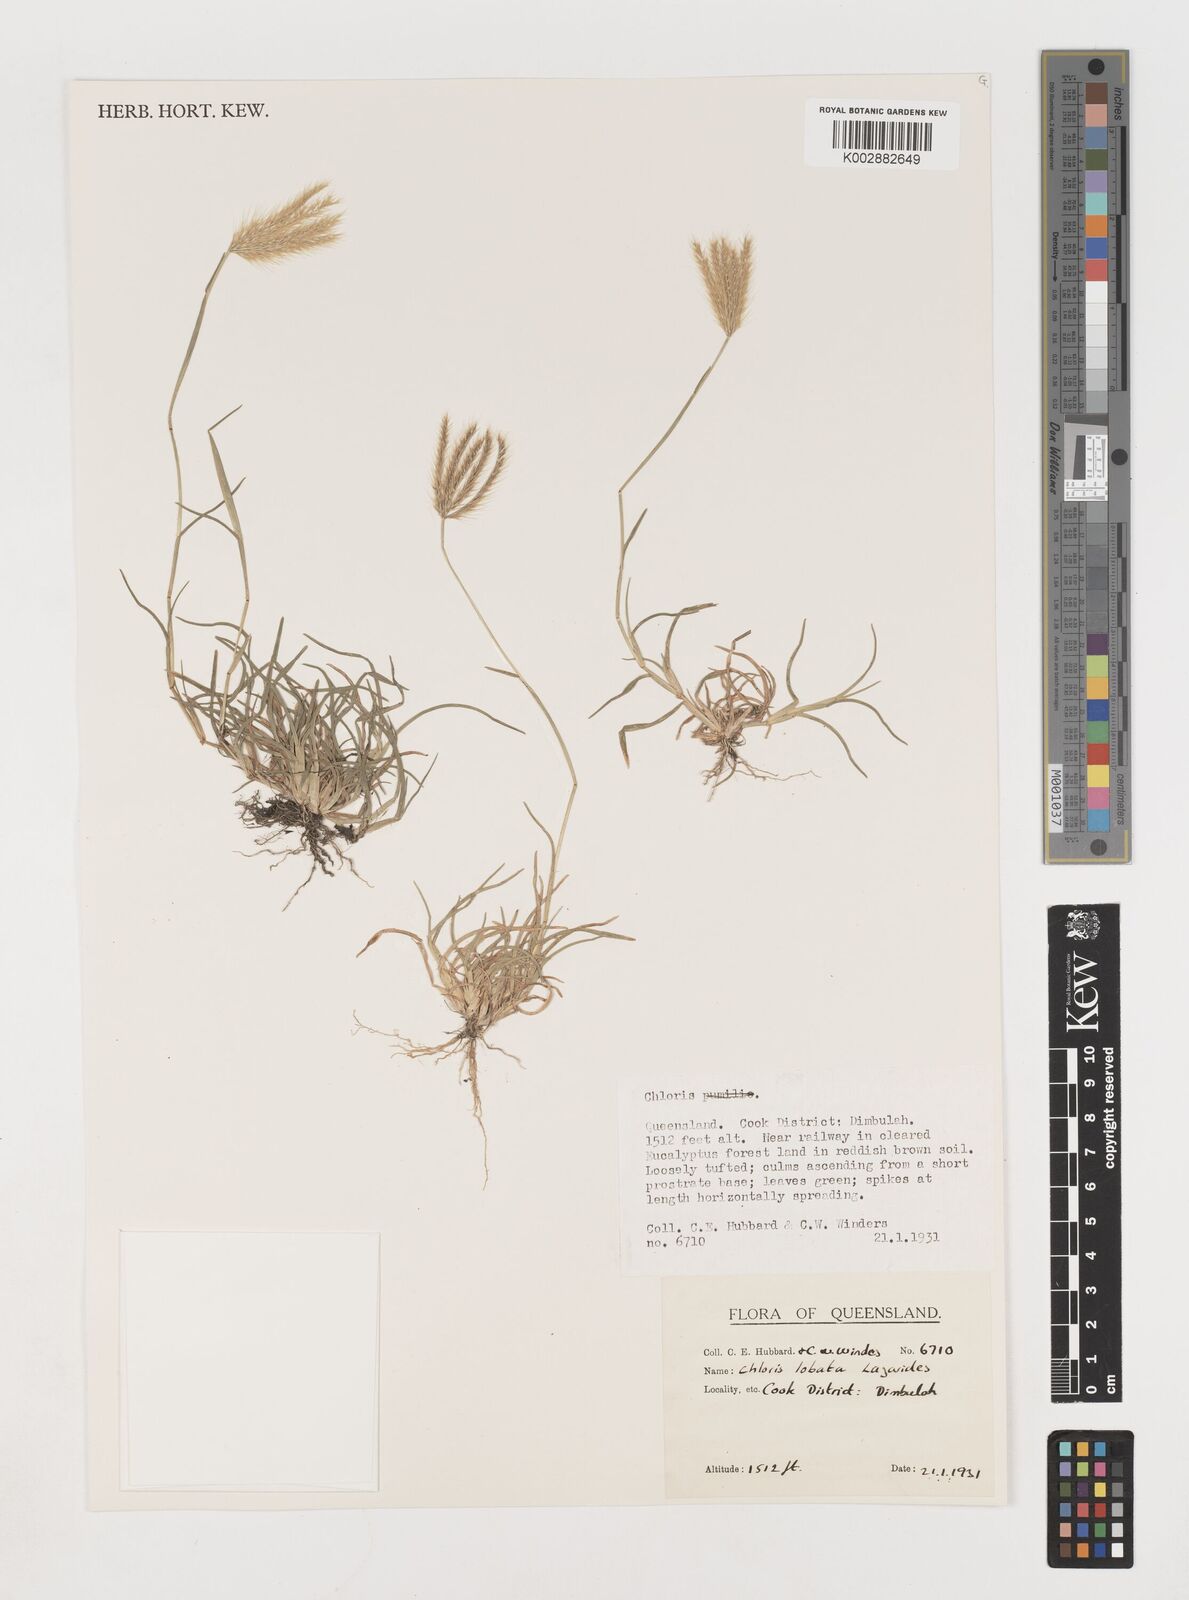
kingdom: Plantae
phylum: Tracheophyta
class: Liliopsida
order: Poales
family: Poaceae
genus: Chloris
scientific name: Chloris lobata
